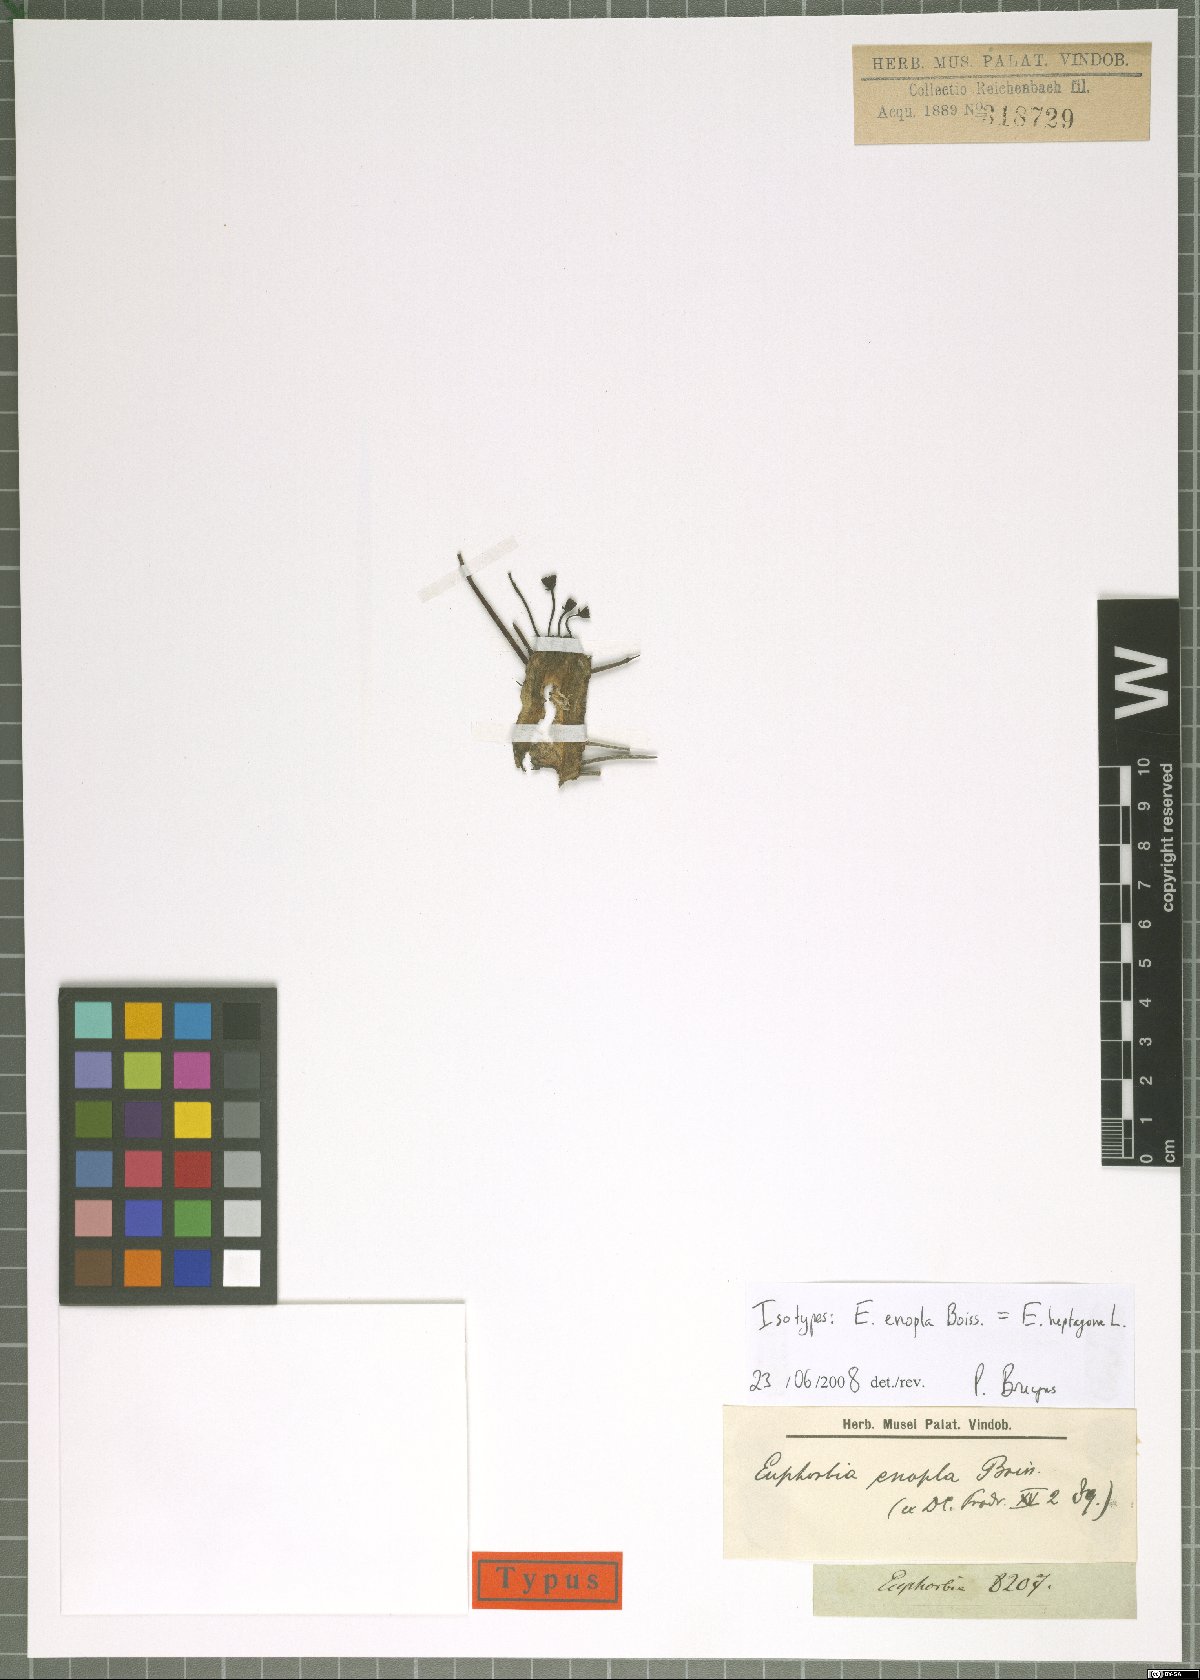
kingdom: Plantae
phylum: Tracheophyta
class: Magnoliopsida
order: Malpighiales
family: Euphorbiaceae
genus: Euphorbia
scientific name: Euphorbia pentagona
